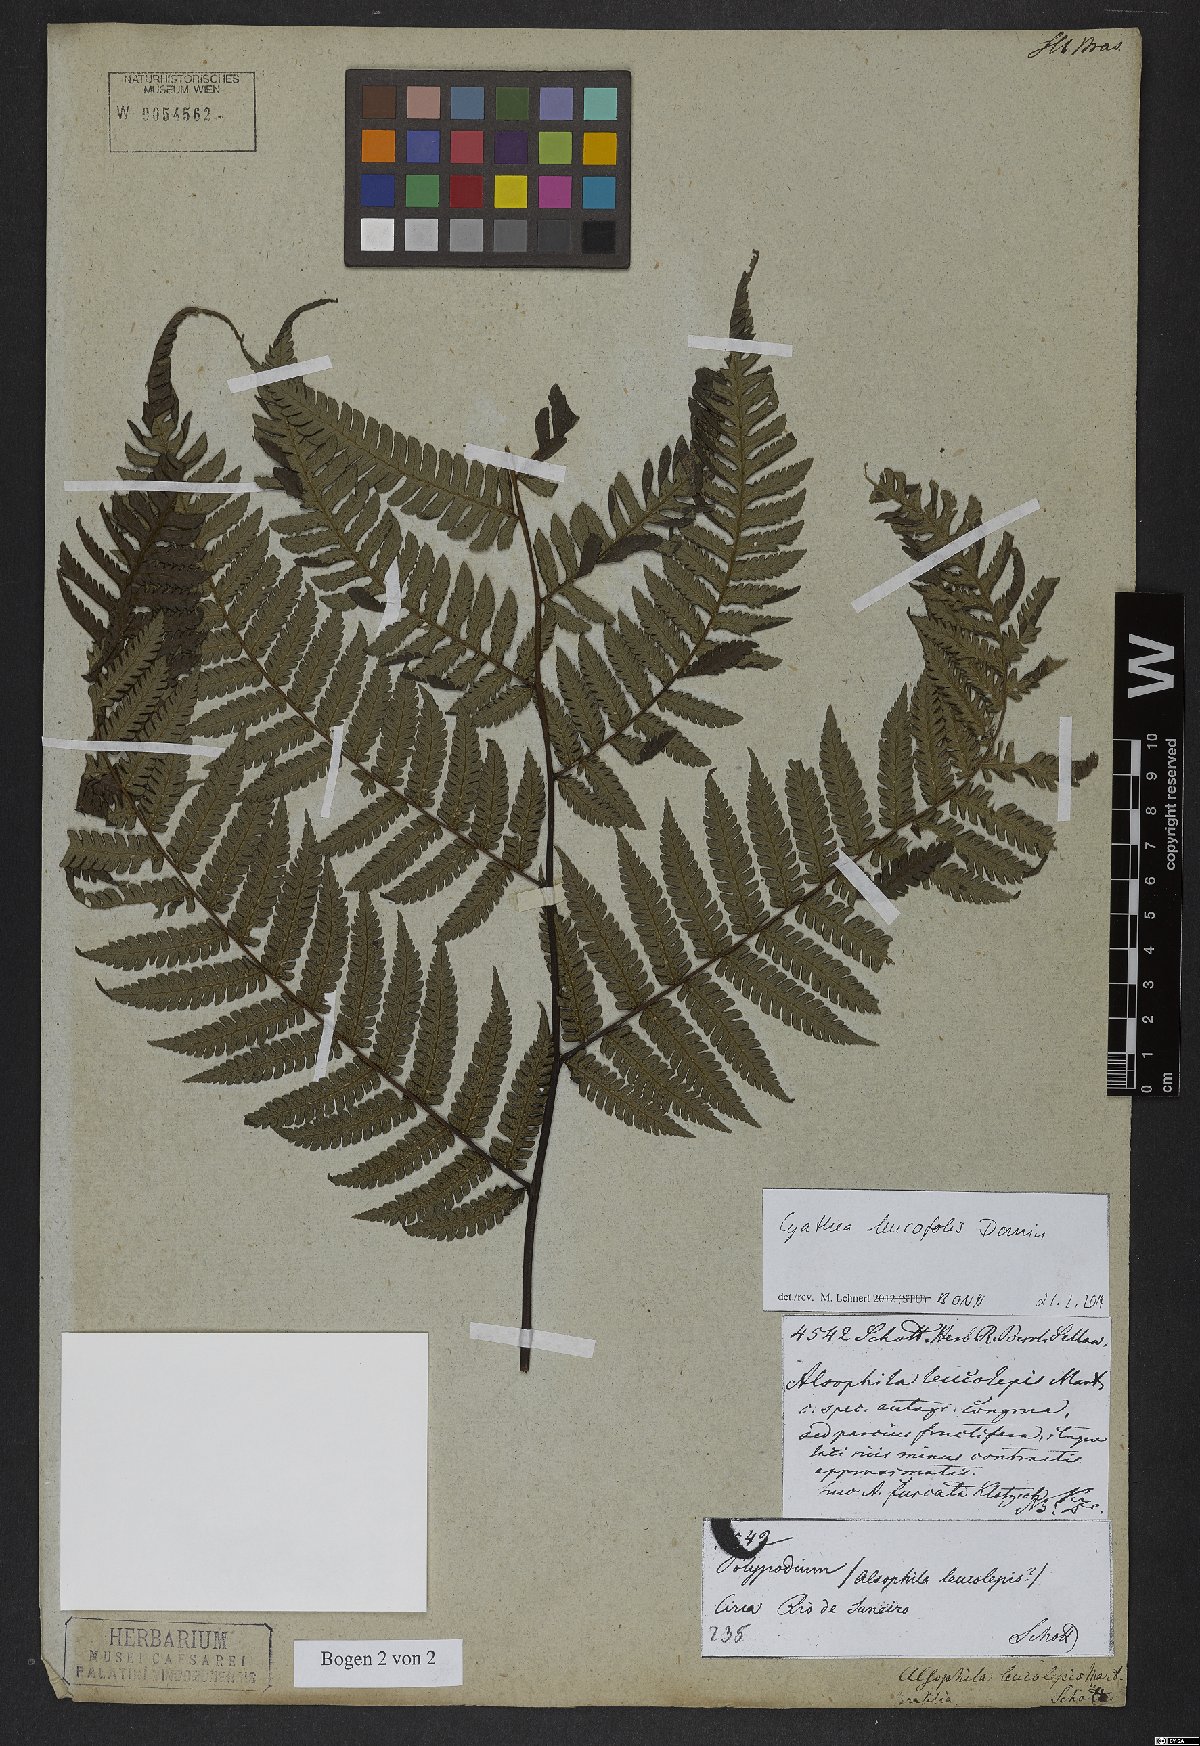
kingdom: Plantae
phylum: Tracheophyta
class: Polypodiopsida
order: Cyatheales
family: Cyatheaceae
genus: Cyathea
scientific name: Cyathea leucofolis
